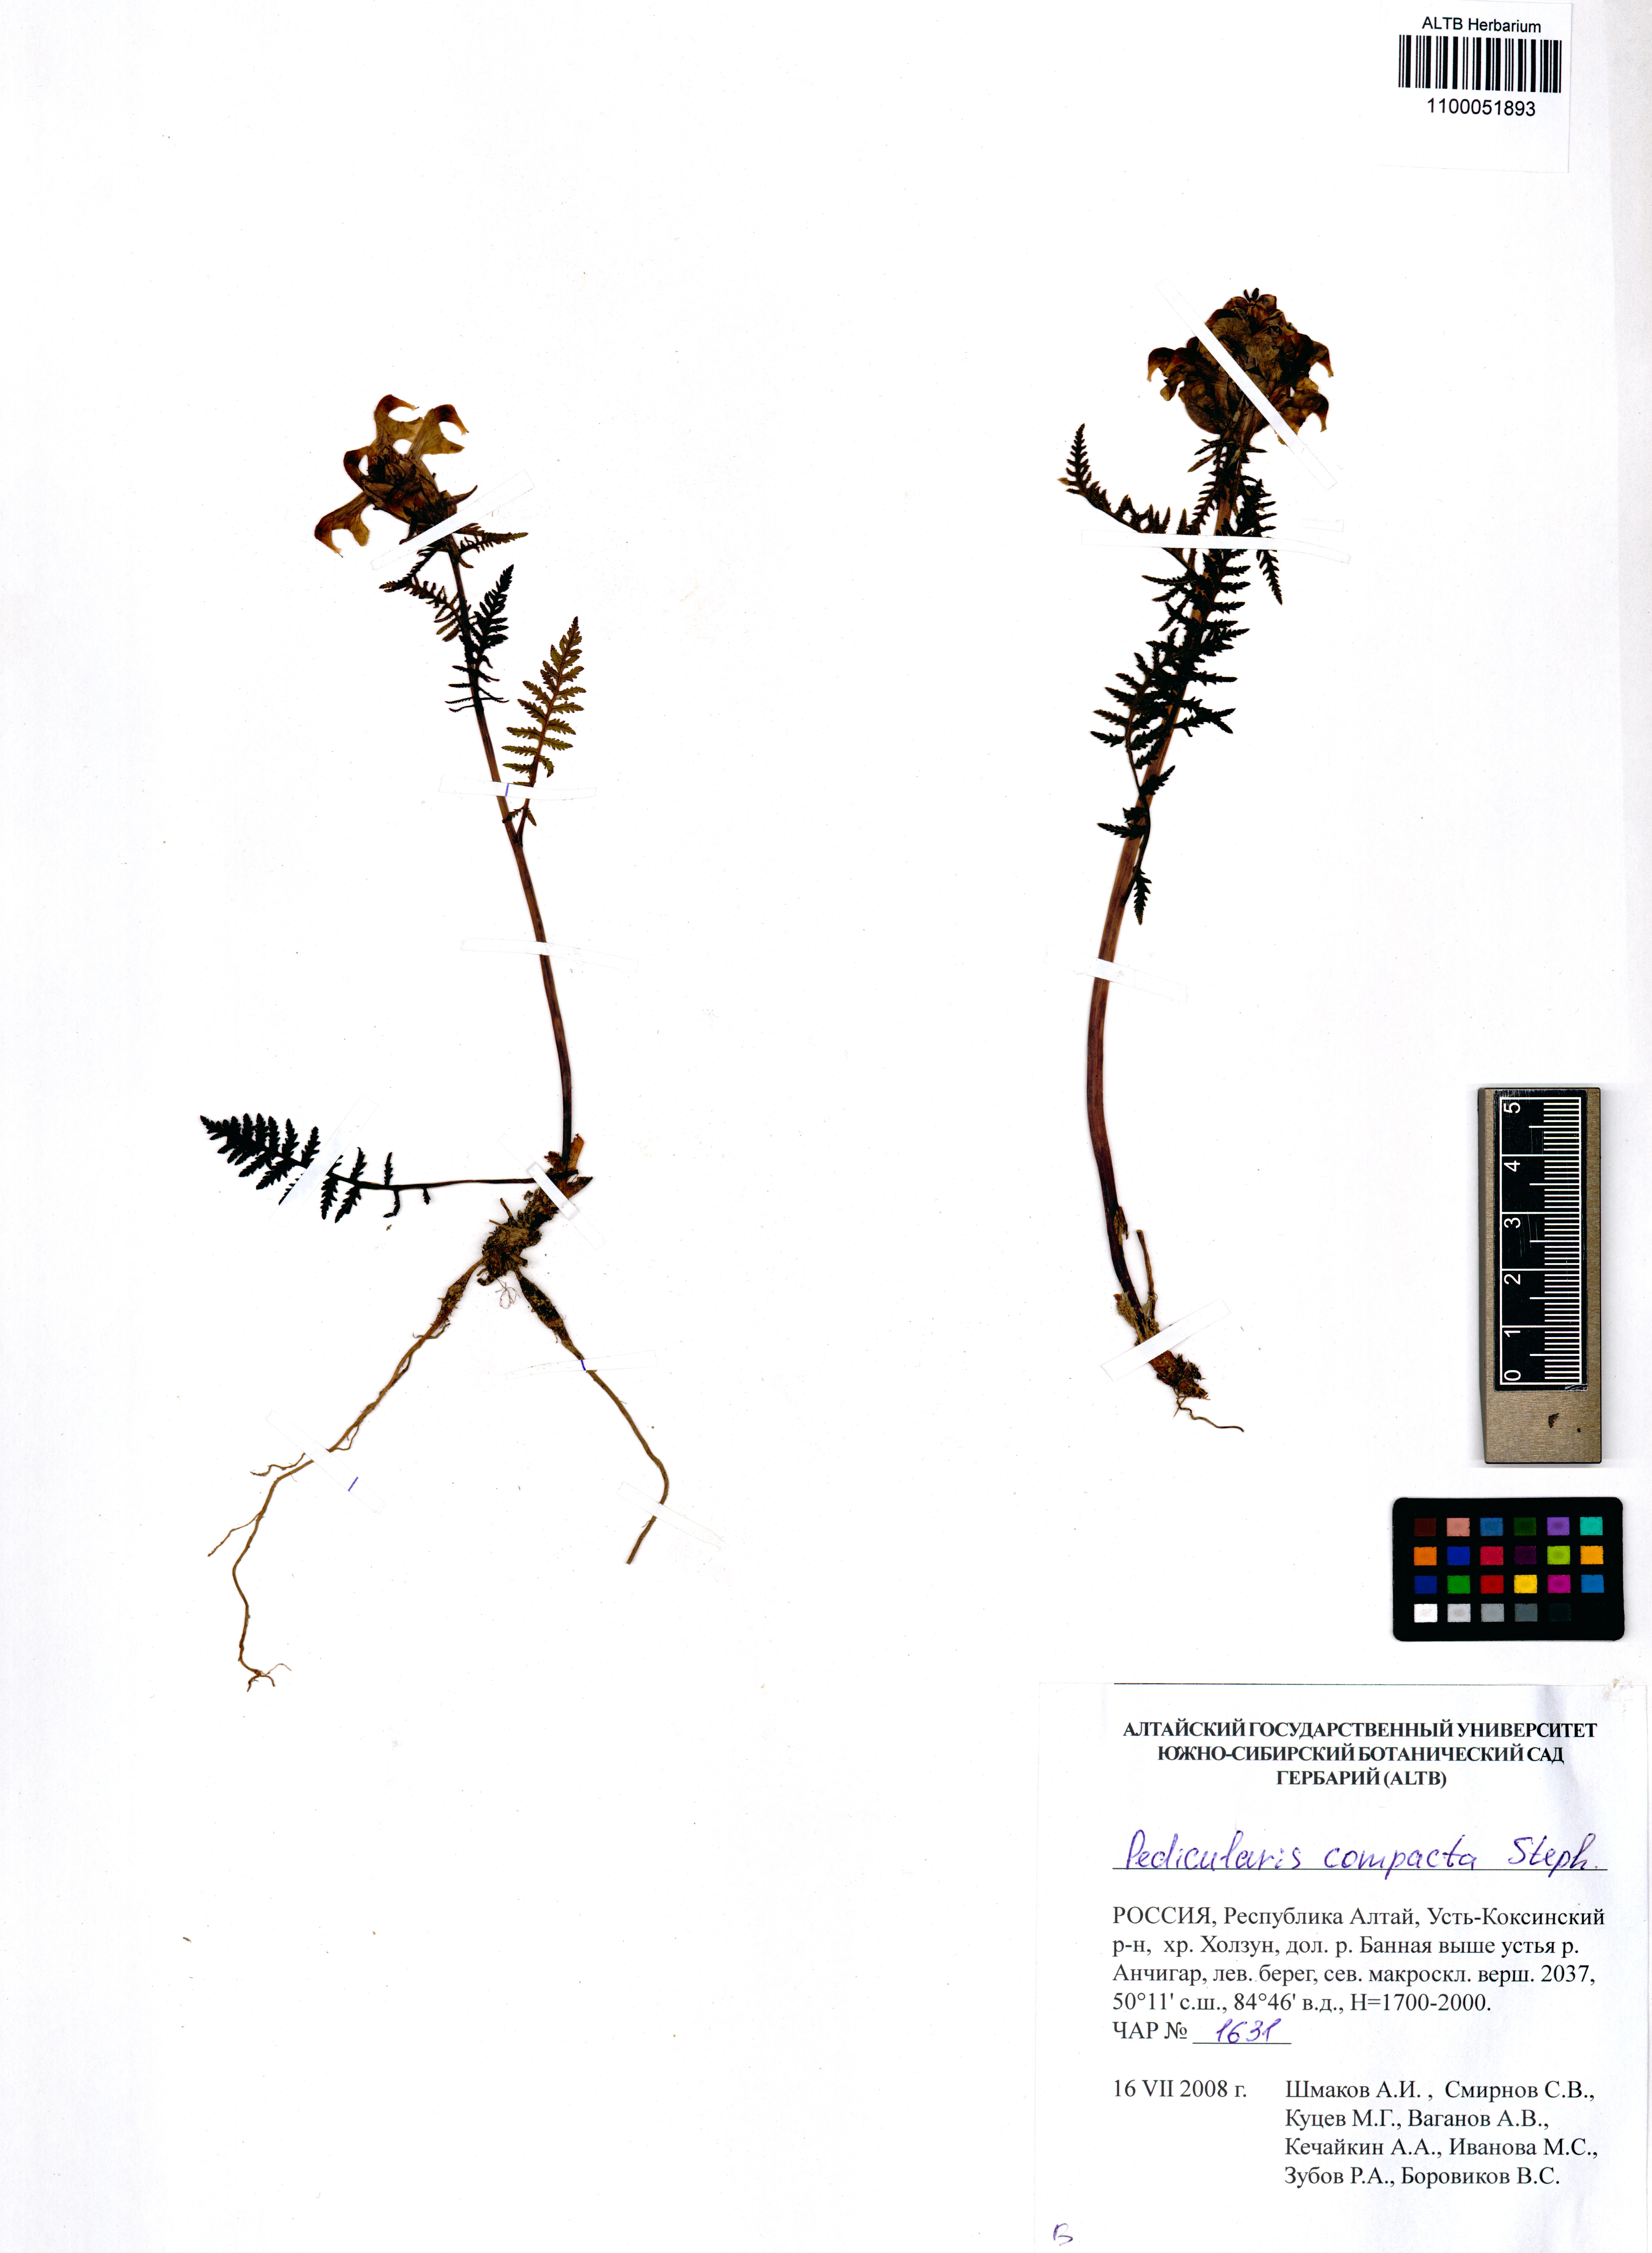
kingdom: Plantae
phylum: Tracheophyta
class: Magnoliopsida
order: Lamiales
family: Orobanchaceae
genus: Pedicularis
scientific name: Pedicularis compacta
